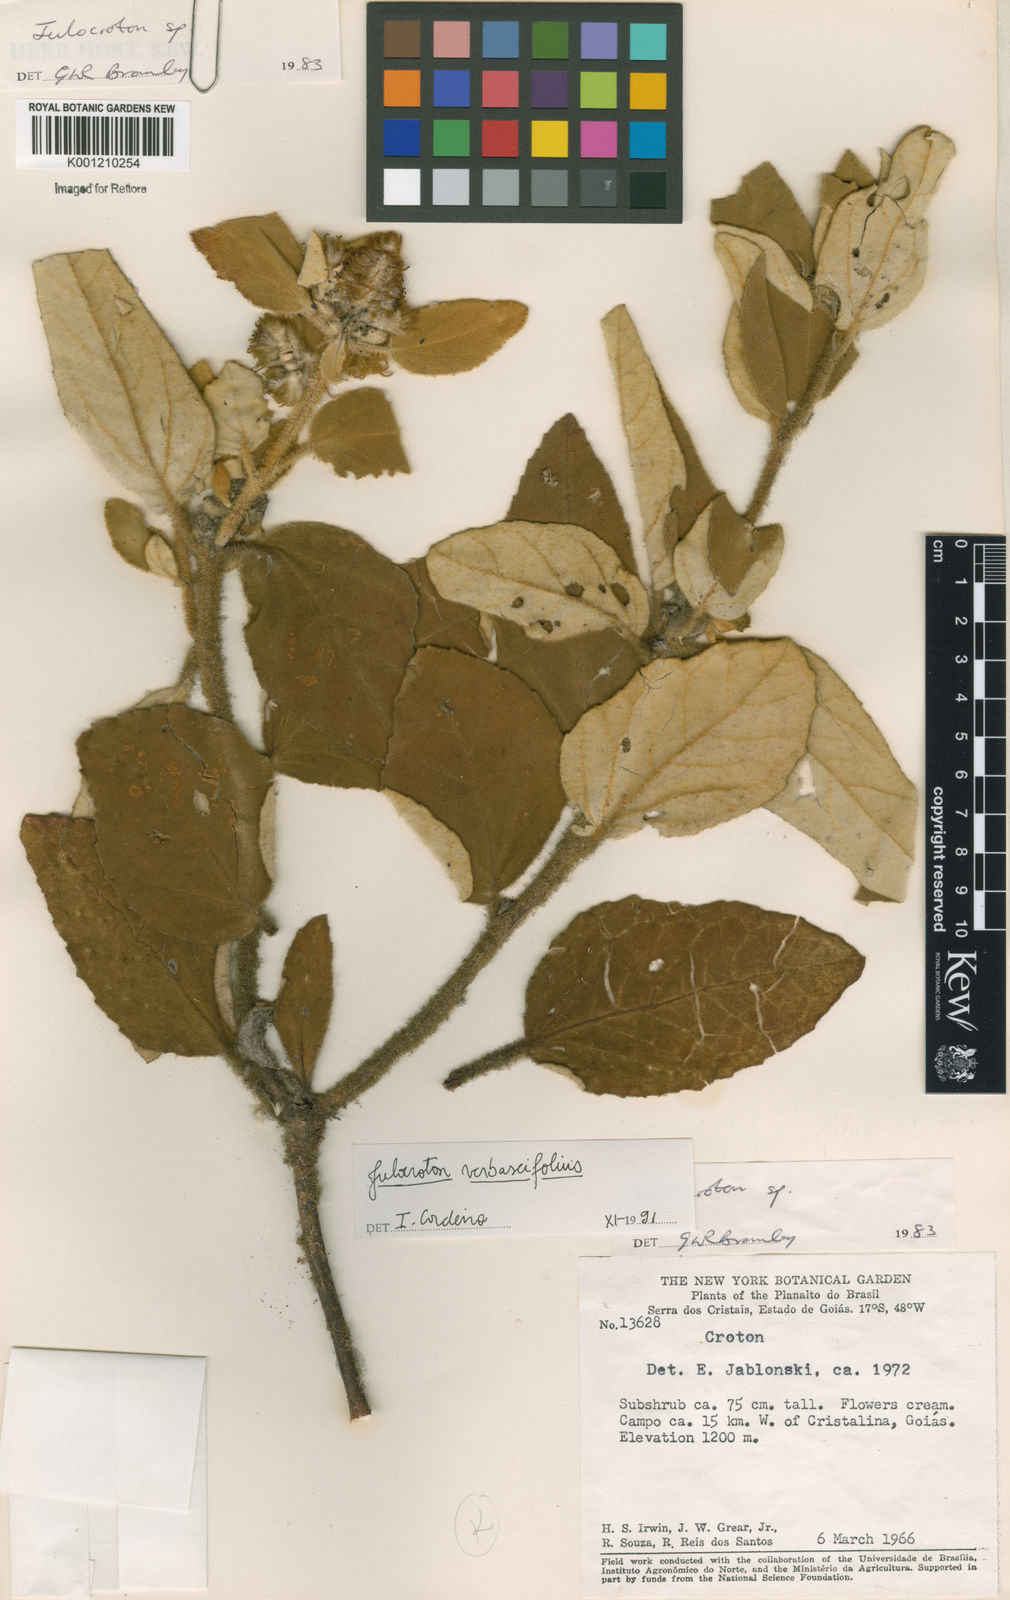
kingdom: Plantae
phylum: Tracheophyta
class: Magnoliopsida
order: Malpighiales
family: Euphorbiaceae
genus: Croton
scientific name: Croton
